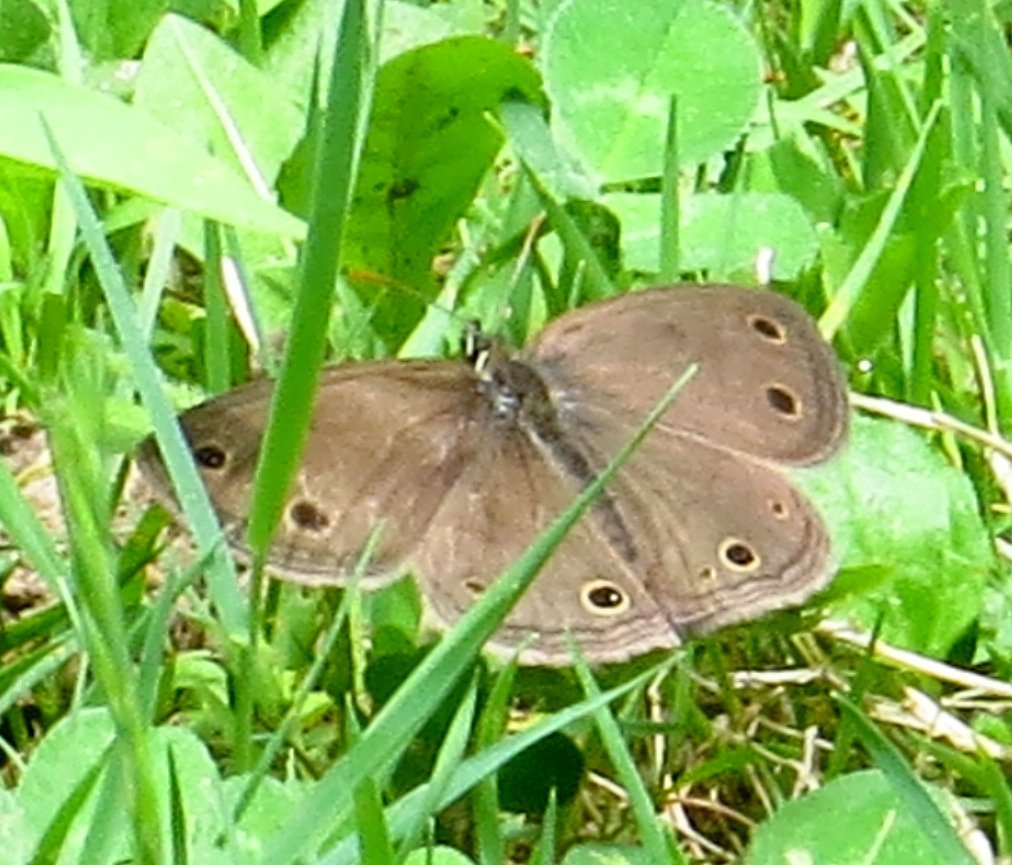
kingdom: Animalia
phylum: Arthropoda
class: Insecta
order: Lepidoptera
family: Nymphalidae
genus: Euptychia
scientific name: Euptychia cymela
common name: Little Wood Satyr
